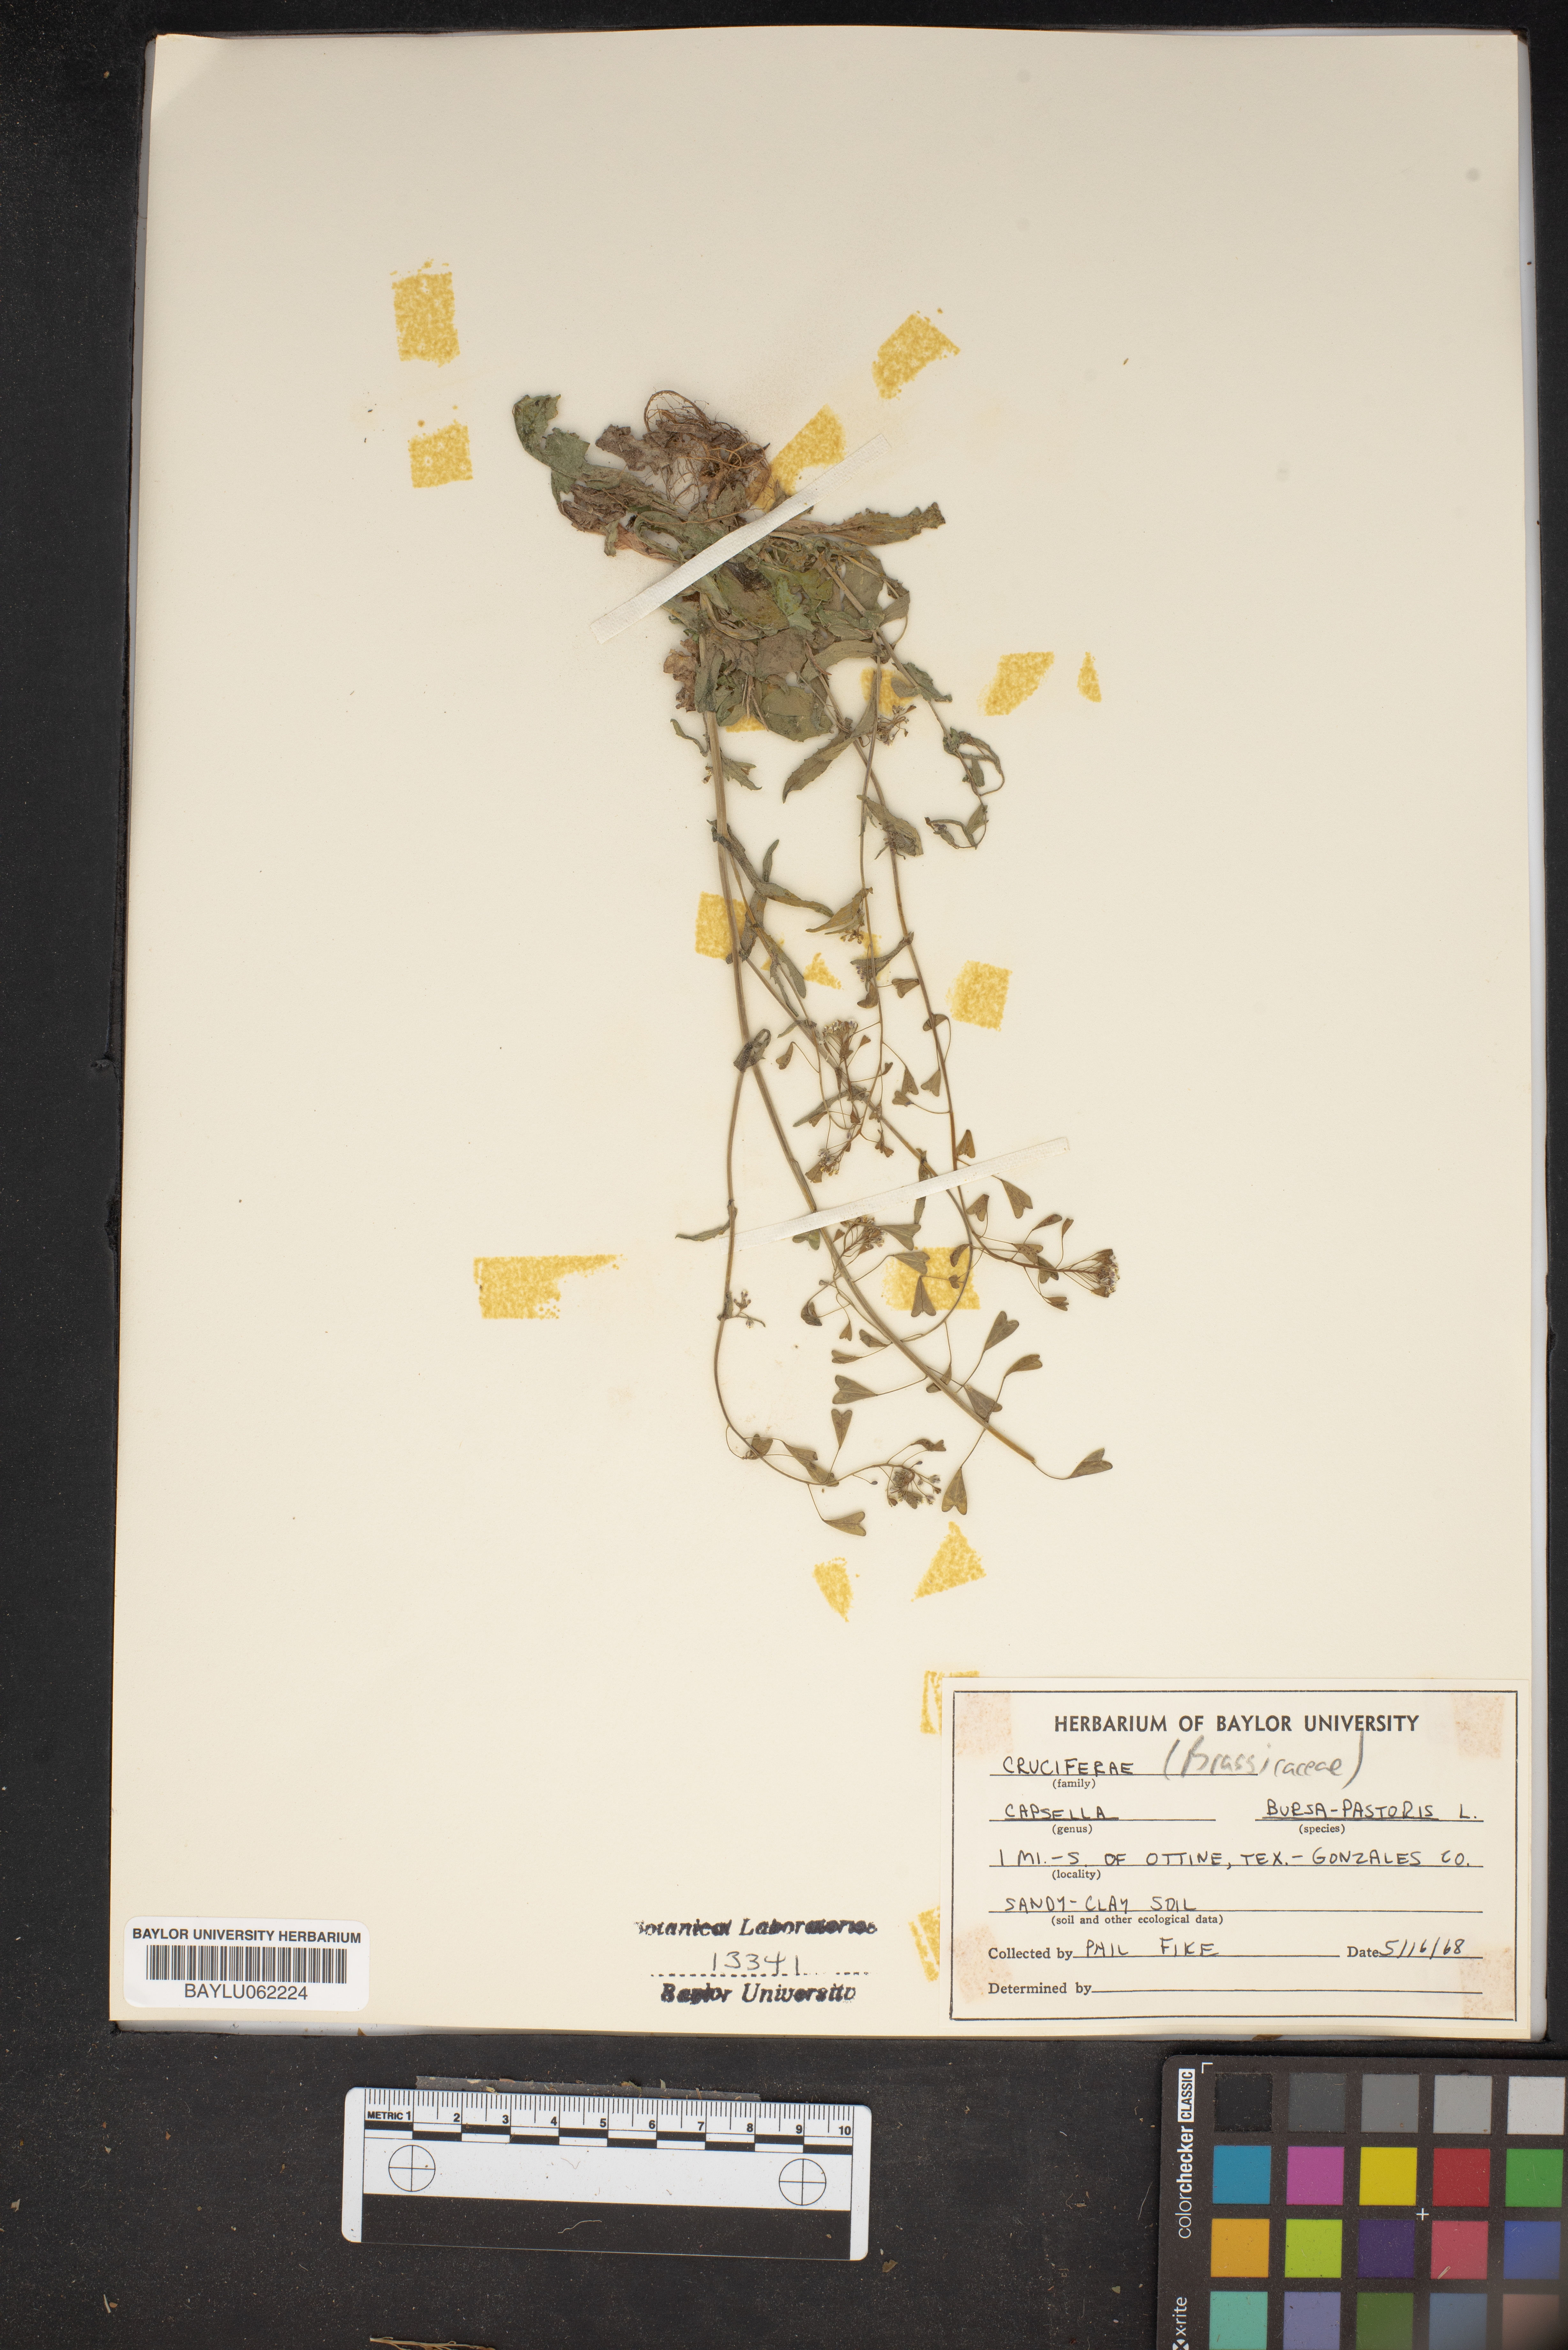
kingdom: Plantae
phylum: Tracheophyta
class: Magnoliopsida
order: Brassicales
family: Brassicaceae
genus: Capsella
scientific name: Capsella bursa-pastoris
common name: Shepherd's purse
